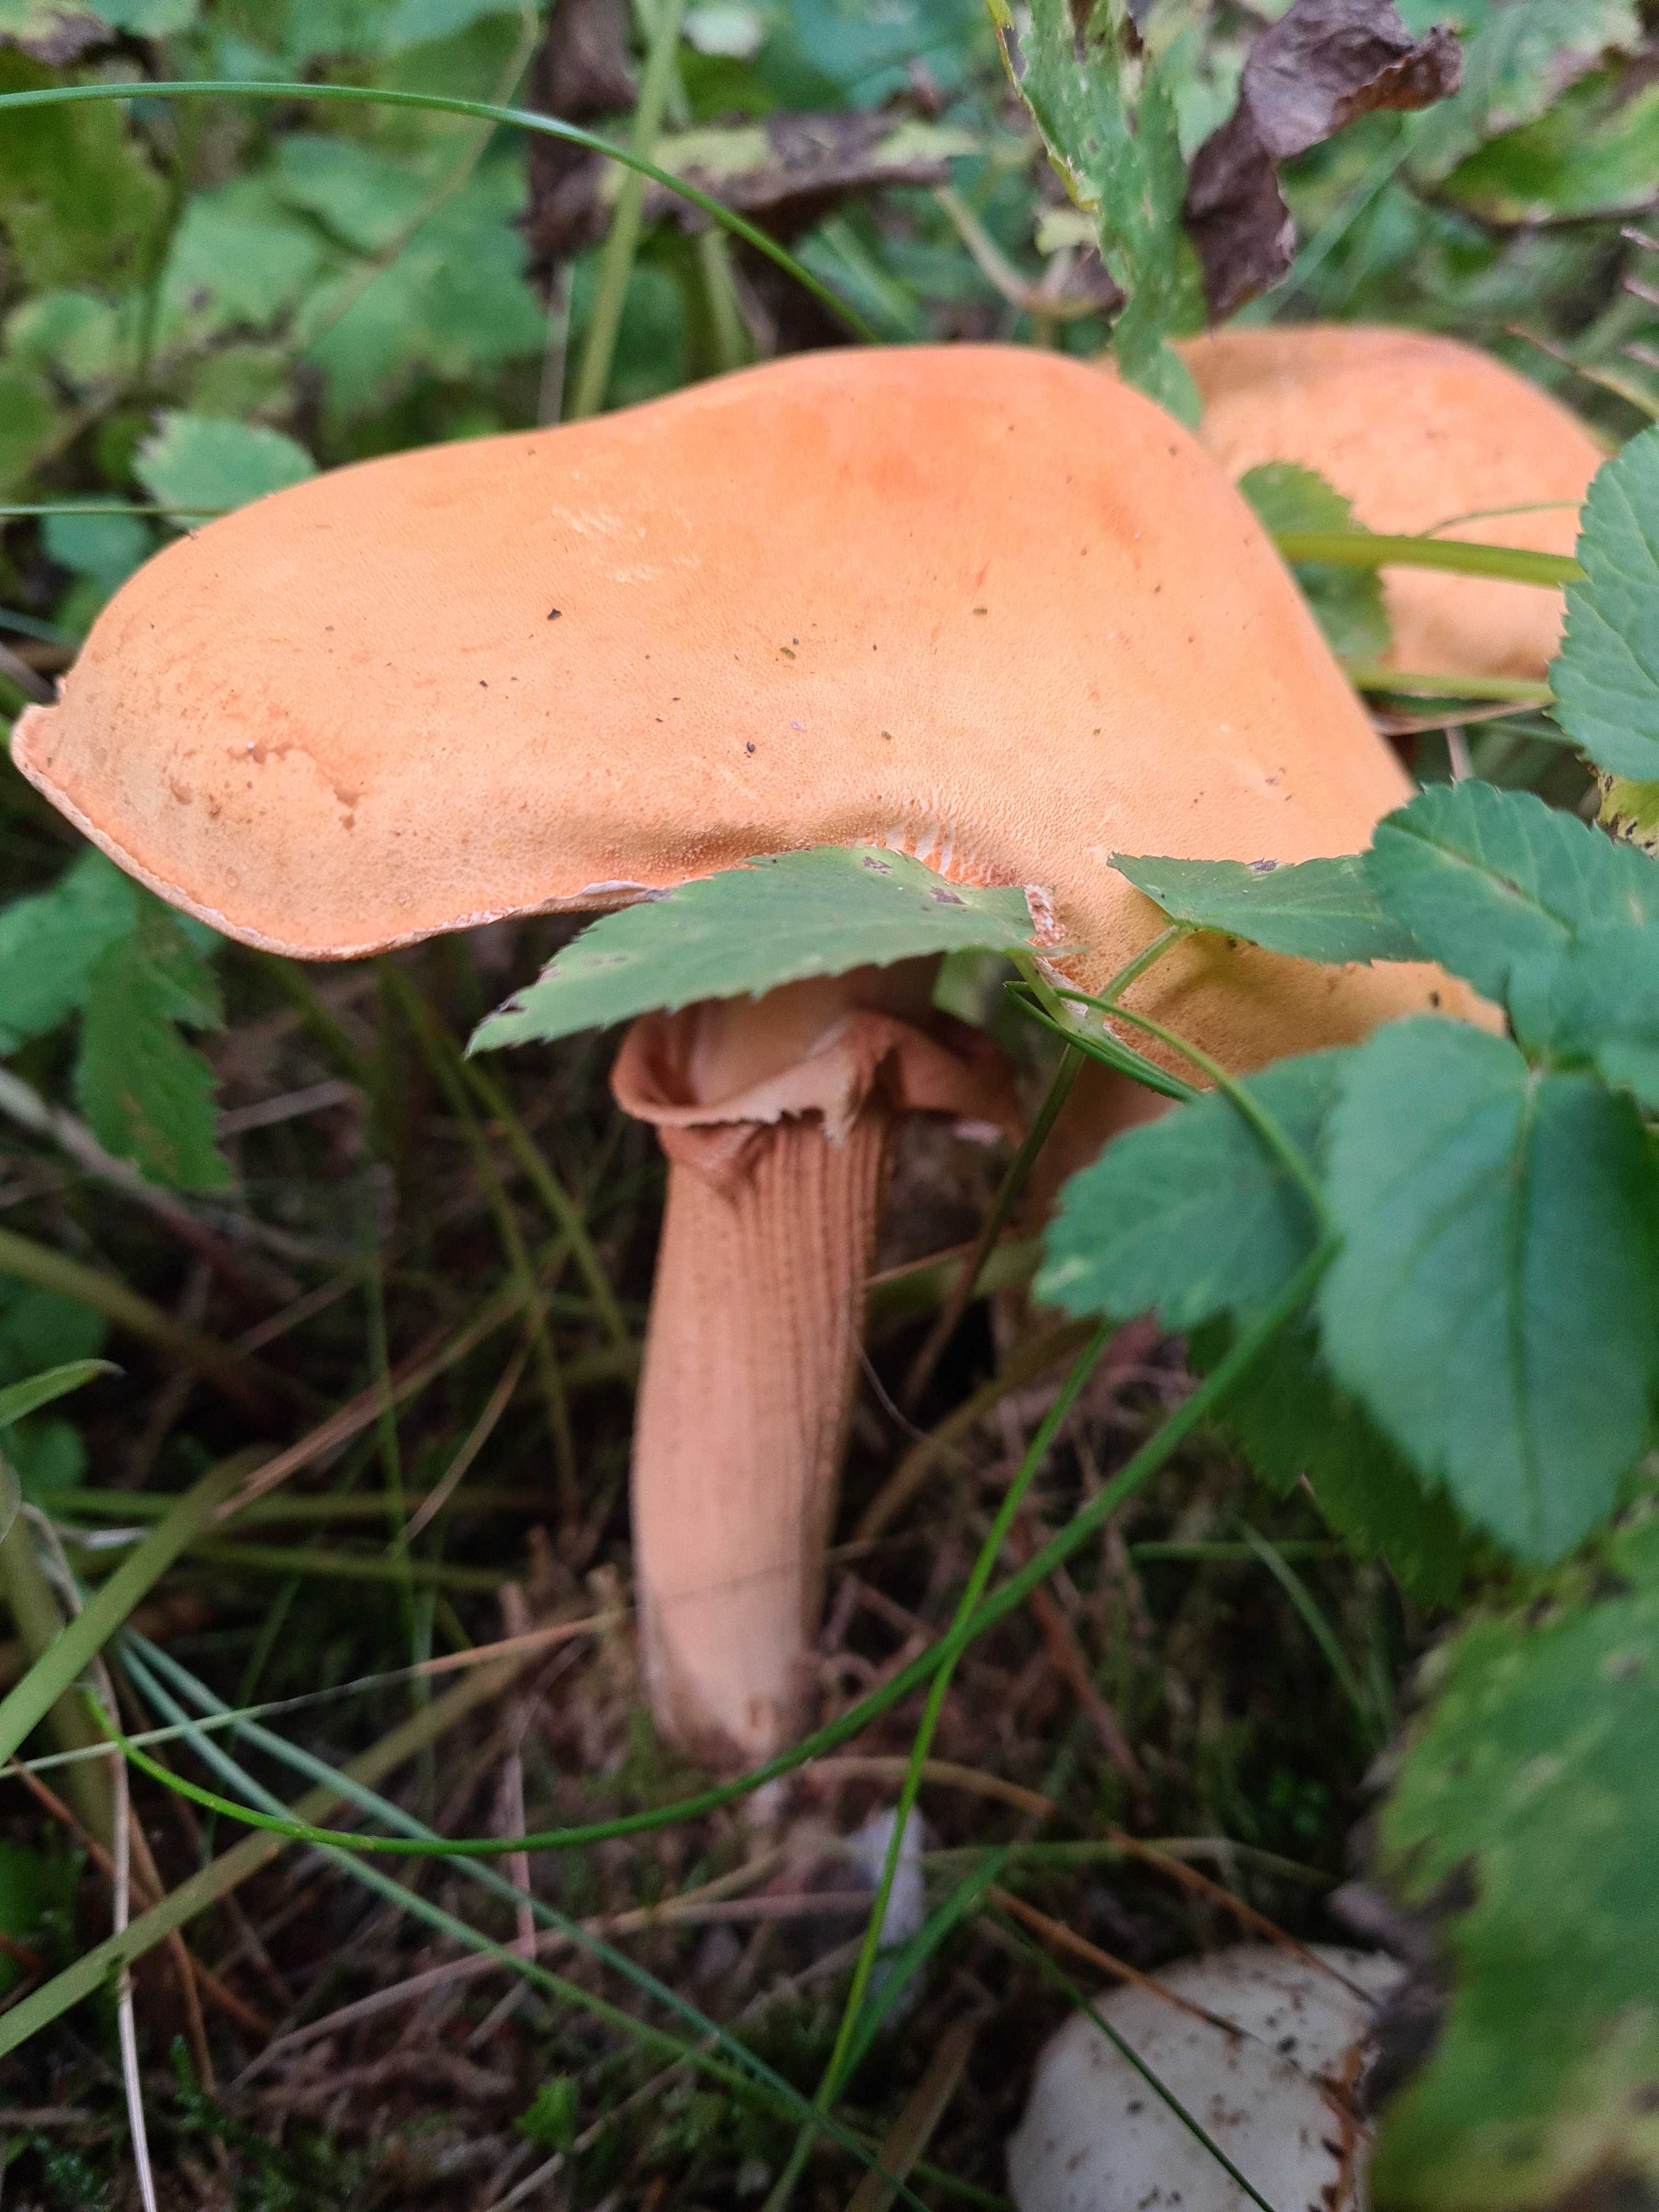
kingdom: Fungi
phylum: Basidiomycota
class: Agaricomycetes
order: Agaricales
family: Tricholomataceae
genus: Phaeolepiota
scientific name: Phaeolepiota aurea
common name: gyldenhat
